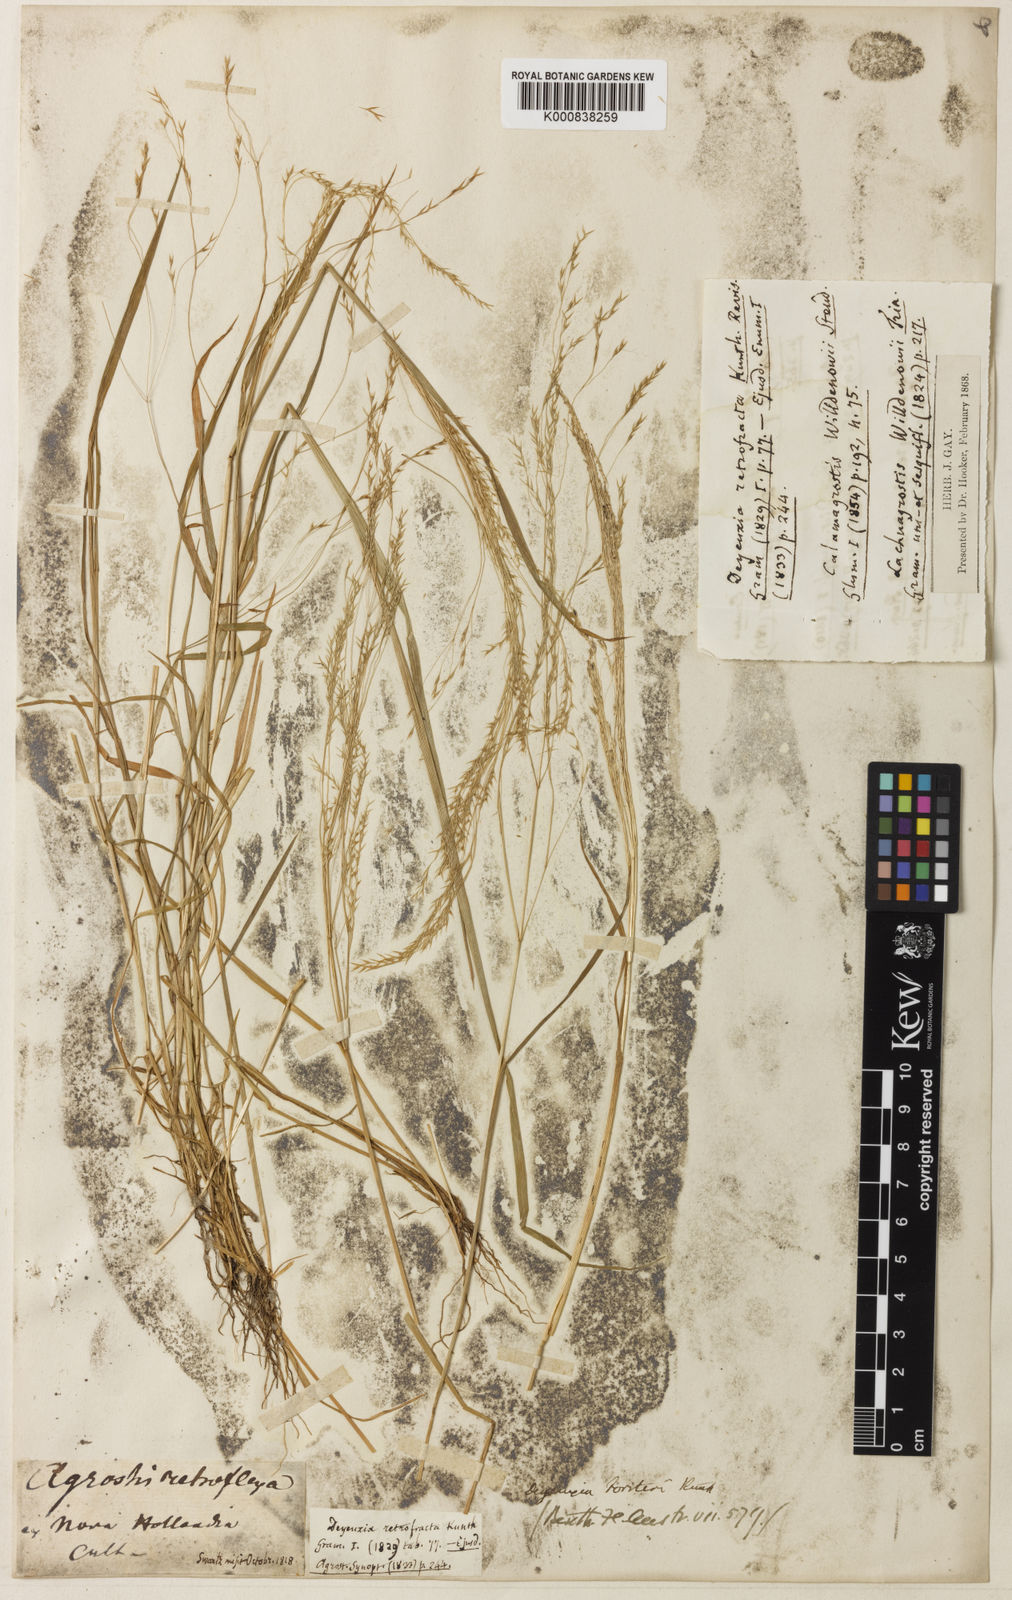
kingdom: Plantae
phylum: Tracheophyta
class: Liliopsida
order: Poales
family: Poaceae
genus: Lachnagrostis
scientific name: Lachnagrostis filiformis
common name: Bentgrass
